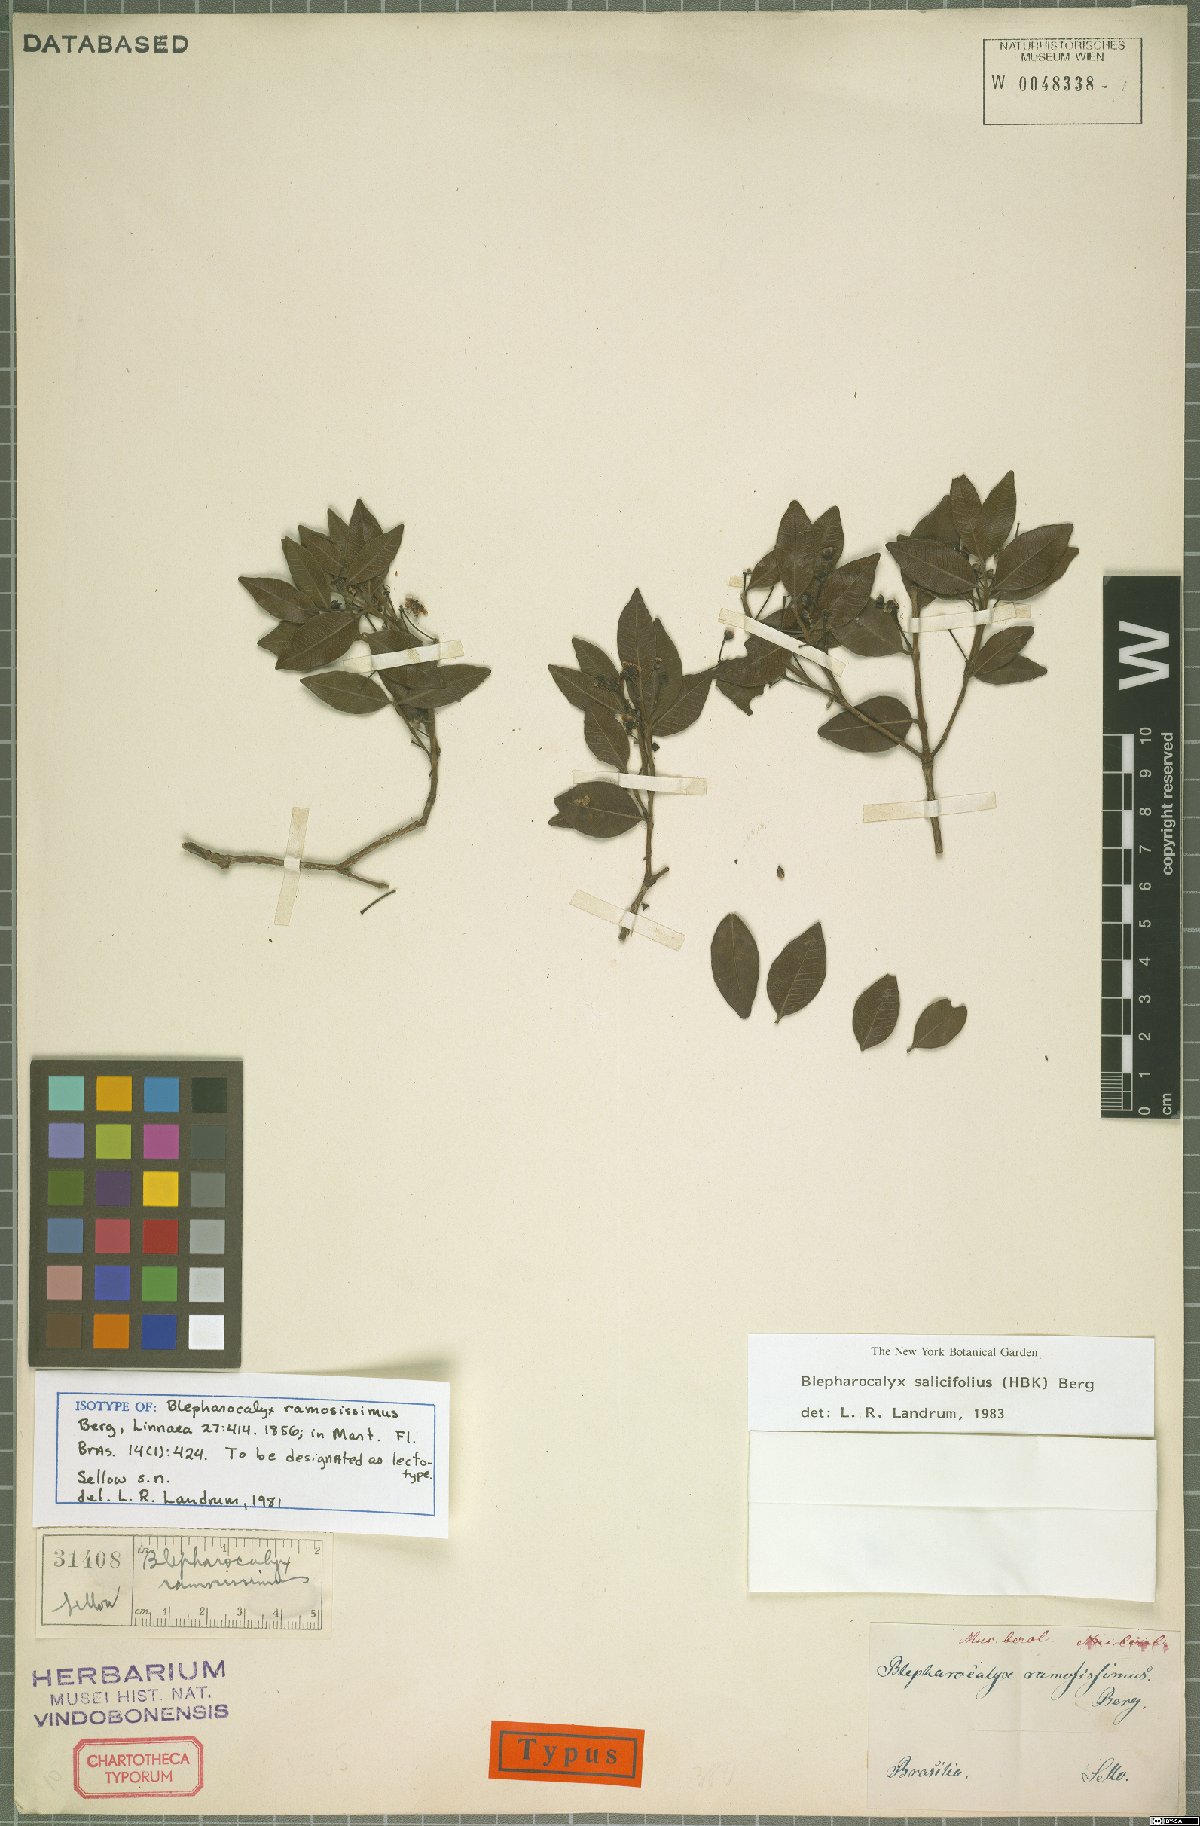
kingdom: Plantae
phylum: Tracheophyta
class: Magnoliopsida
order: Myrtales
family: Myrtaceae
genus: Blepharocalyx
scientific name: Blepharocalyx salicifolius
